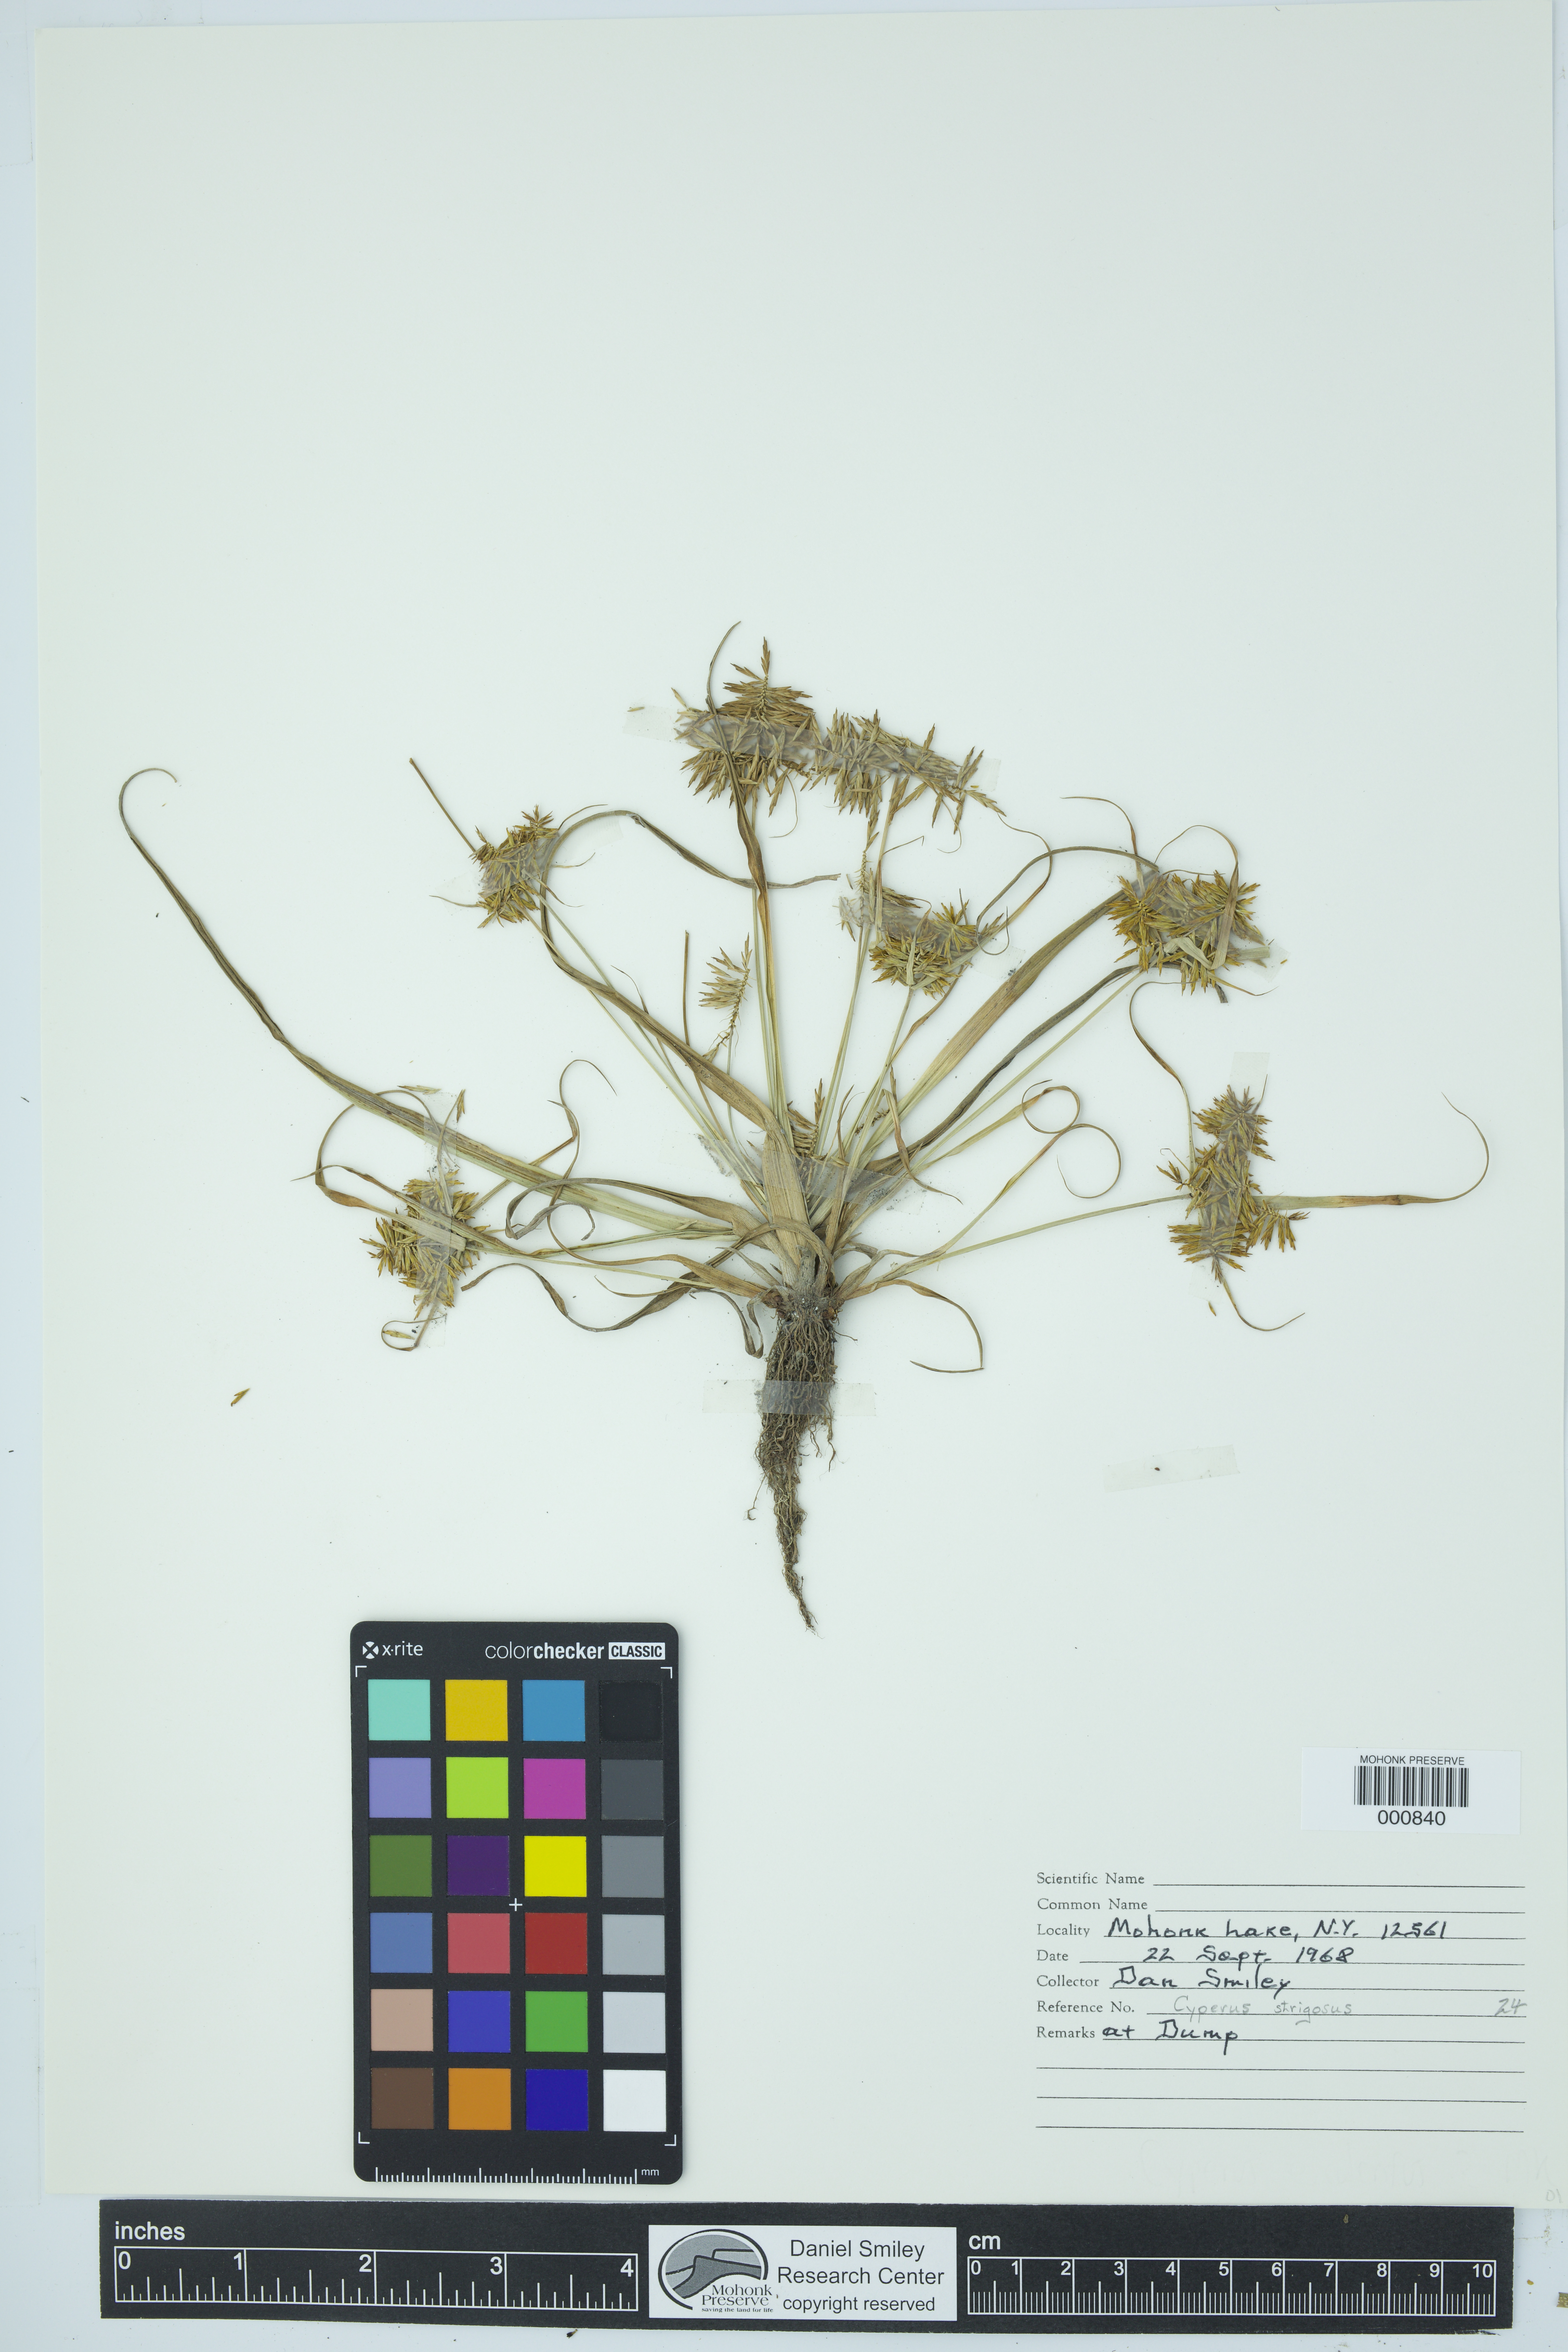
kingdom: Plantae
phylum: Tracheophyta
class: Liliopsida
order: Poales
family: Cyperaceae
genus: Cyperus
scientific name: Cyperus strigosus
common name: False nutsedge
